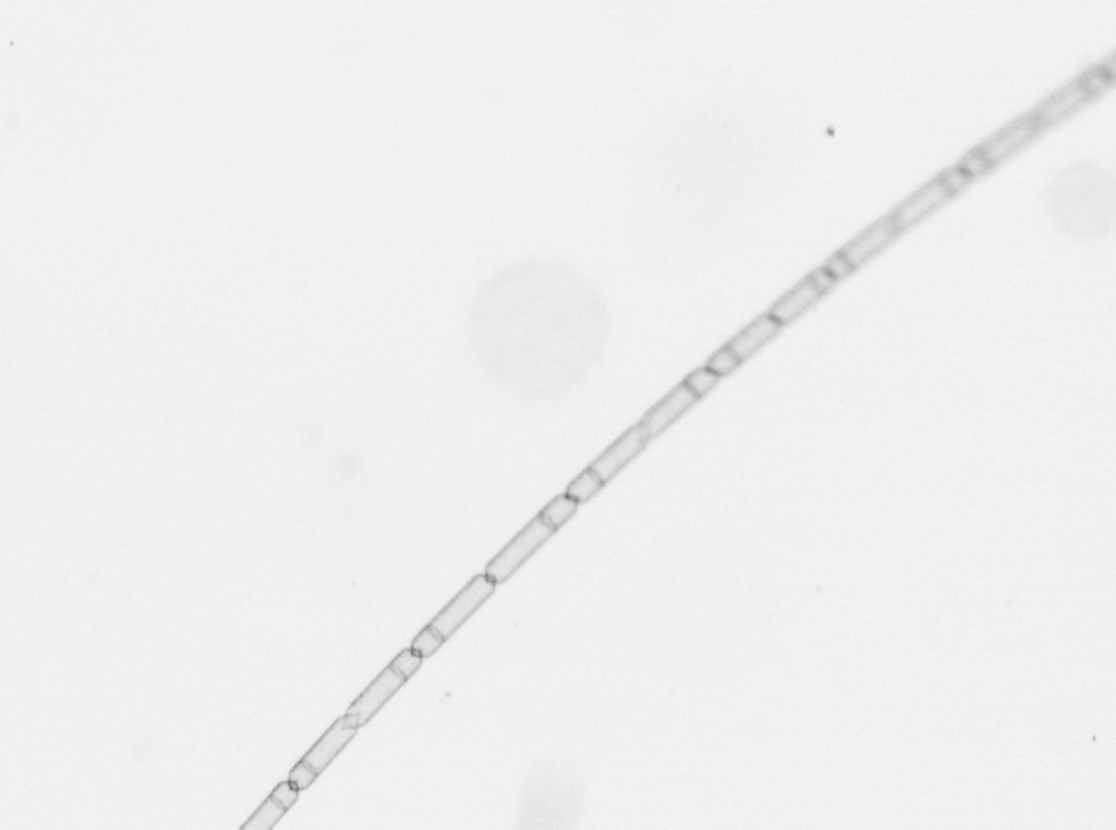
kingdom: Chromista
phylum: Ochrophyta
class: Bacillariophyceae
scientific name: Bacillariophyceae
